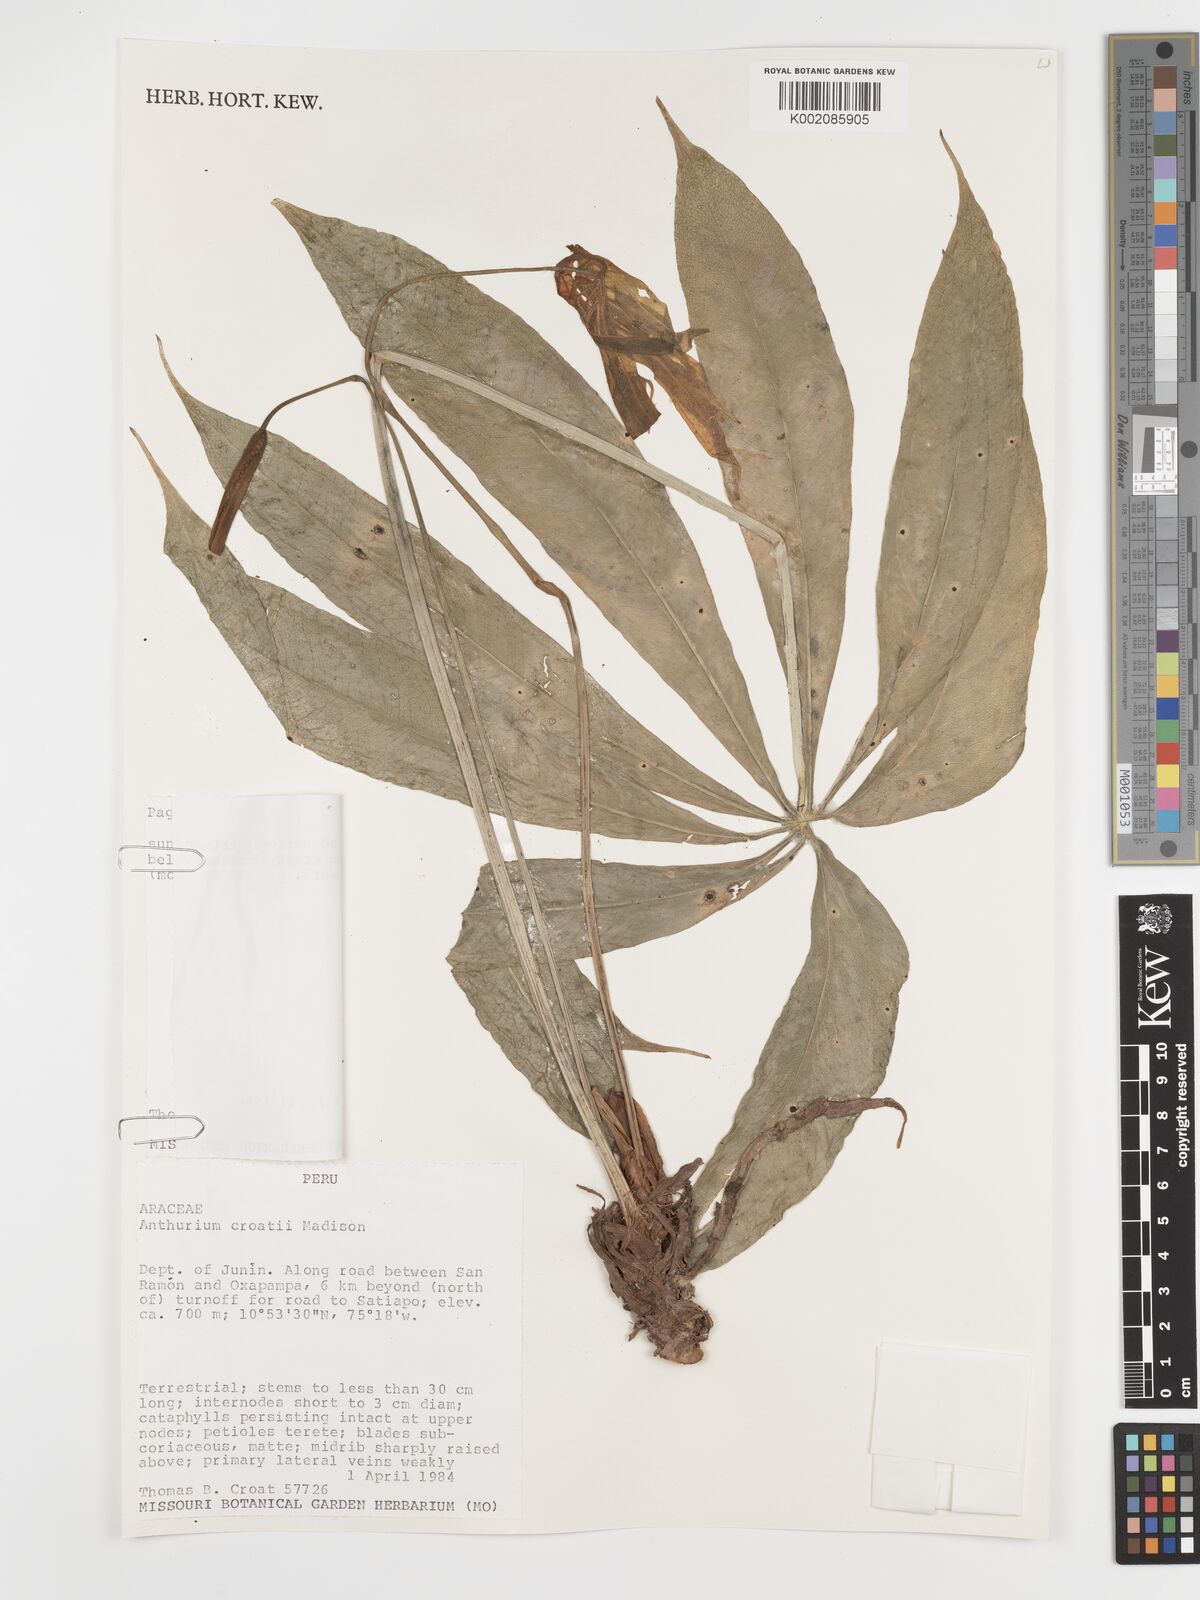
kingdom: Plantae
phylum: Tracheophyta
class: Liliopsida
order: Alismatales
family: Araceae
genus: Anthurium
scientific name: Anthurium croatii
